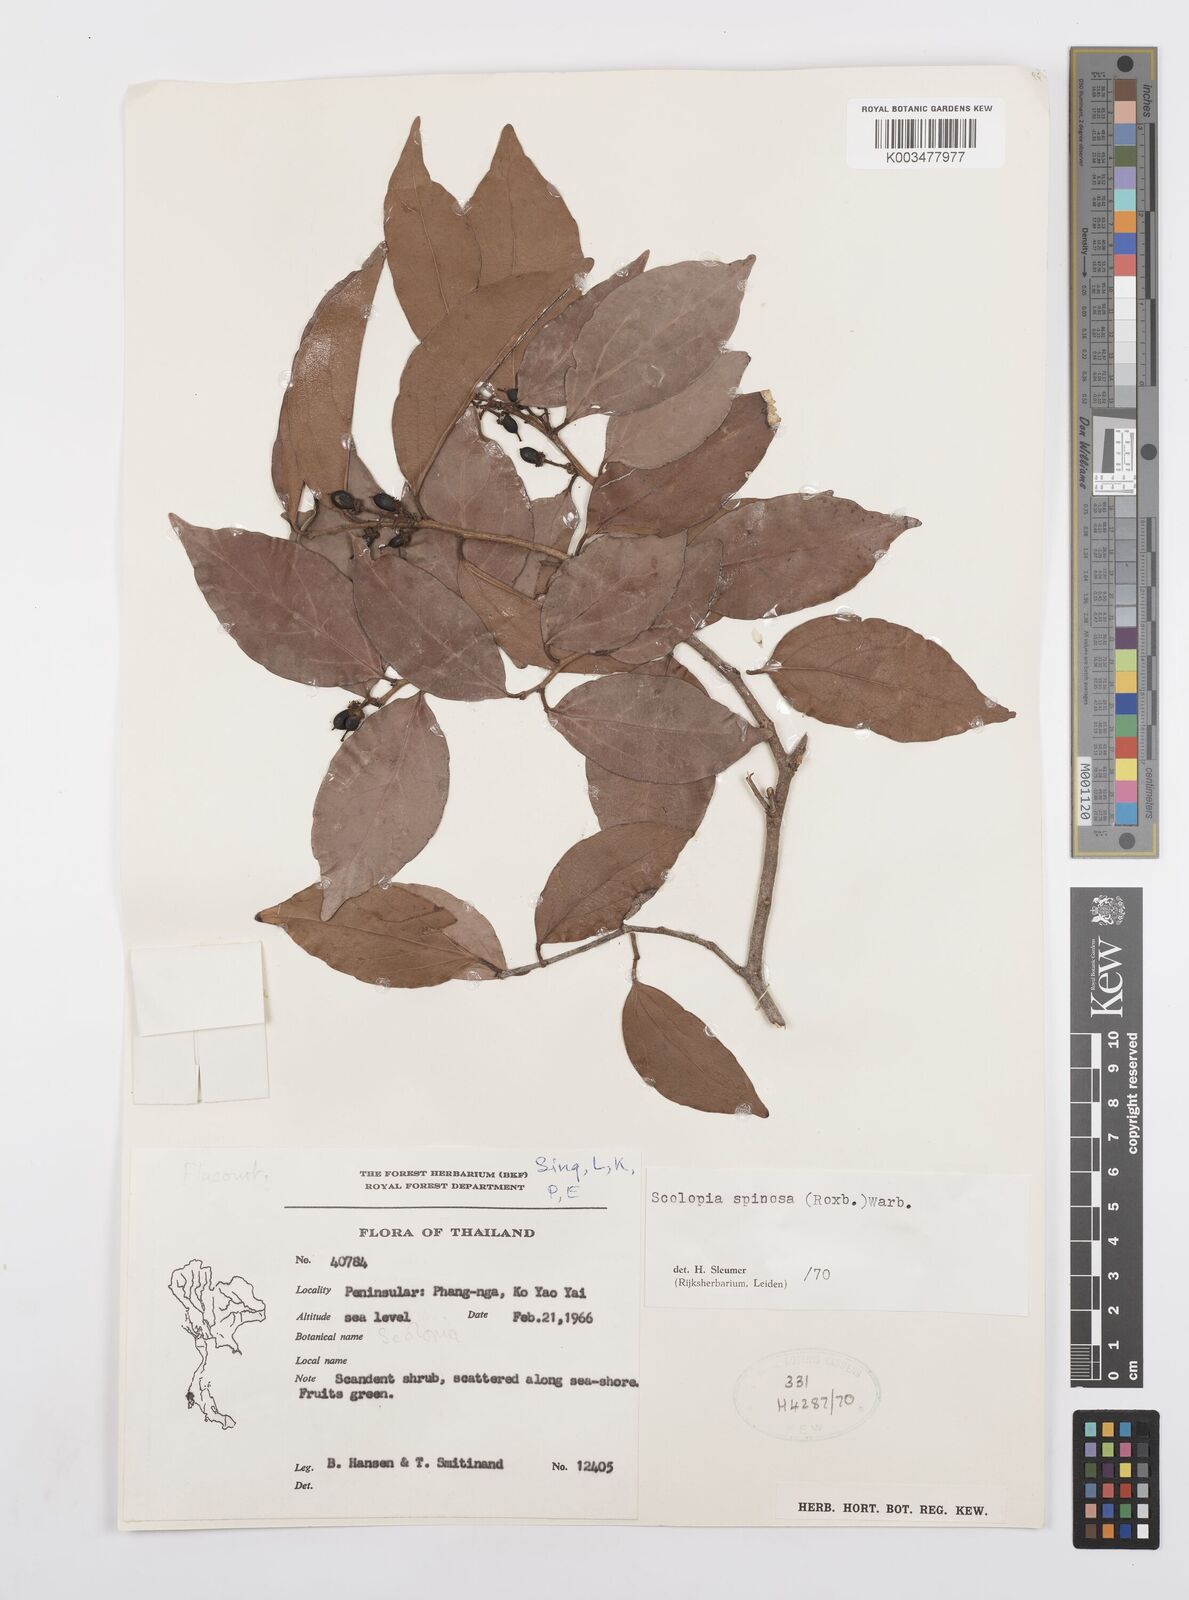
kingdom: Plantae
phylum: Tracheophyta
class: Magnoliopsida
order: Malpighiales
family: Salicaceae
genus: Scolopia
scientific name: Scolopia spinosa
